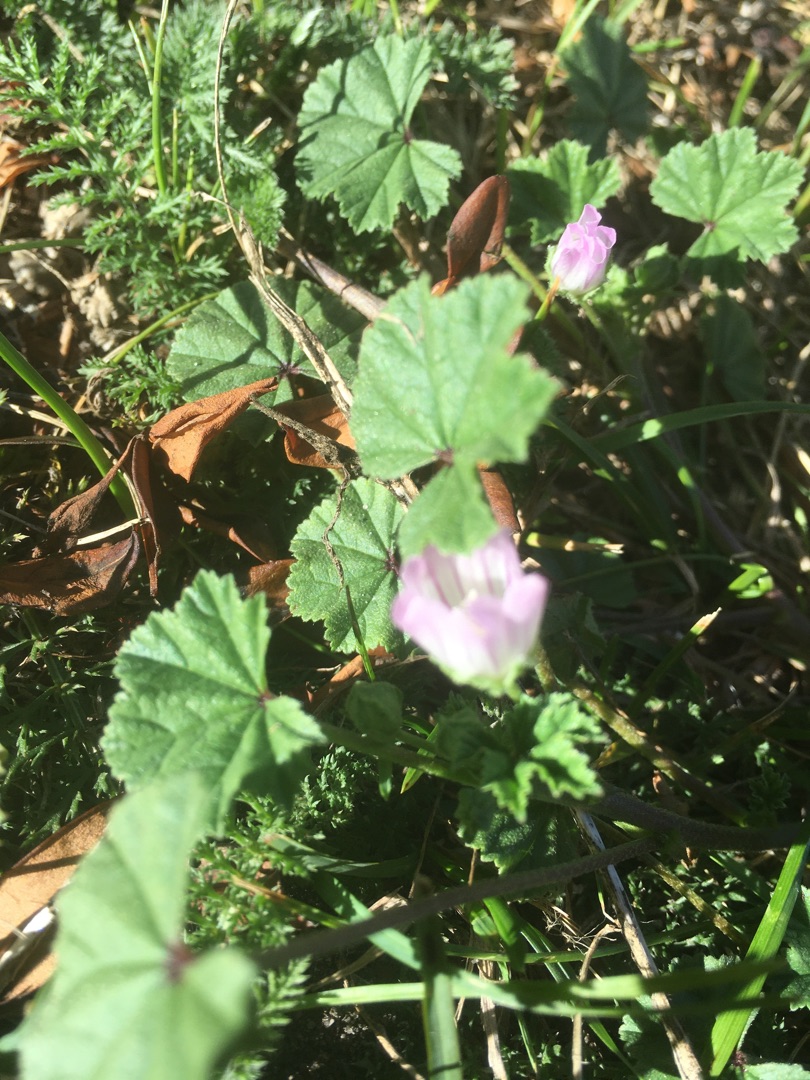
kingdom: Plantae
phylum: Tracheophyta
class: Magnoliopsida
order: Malvales
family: Malvaceae
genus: Malva
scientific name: Malva neglecta
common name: Rundbladet katost
